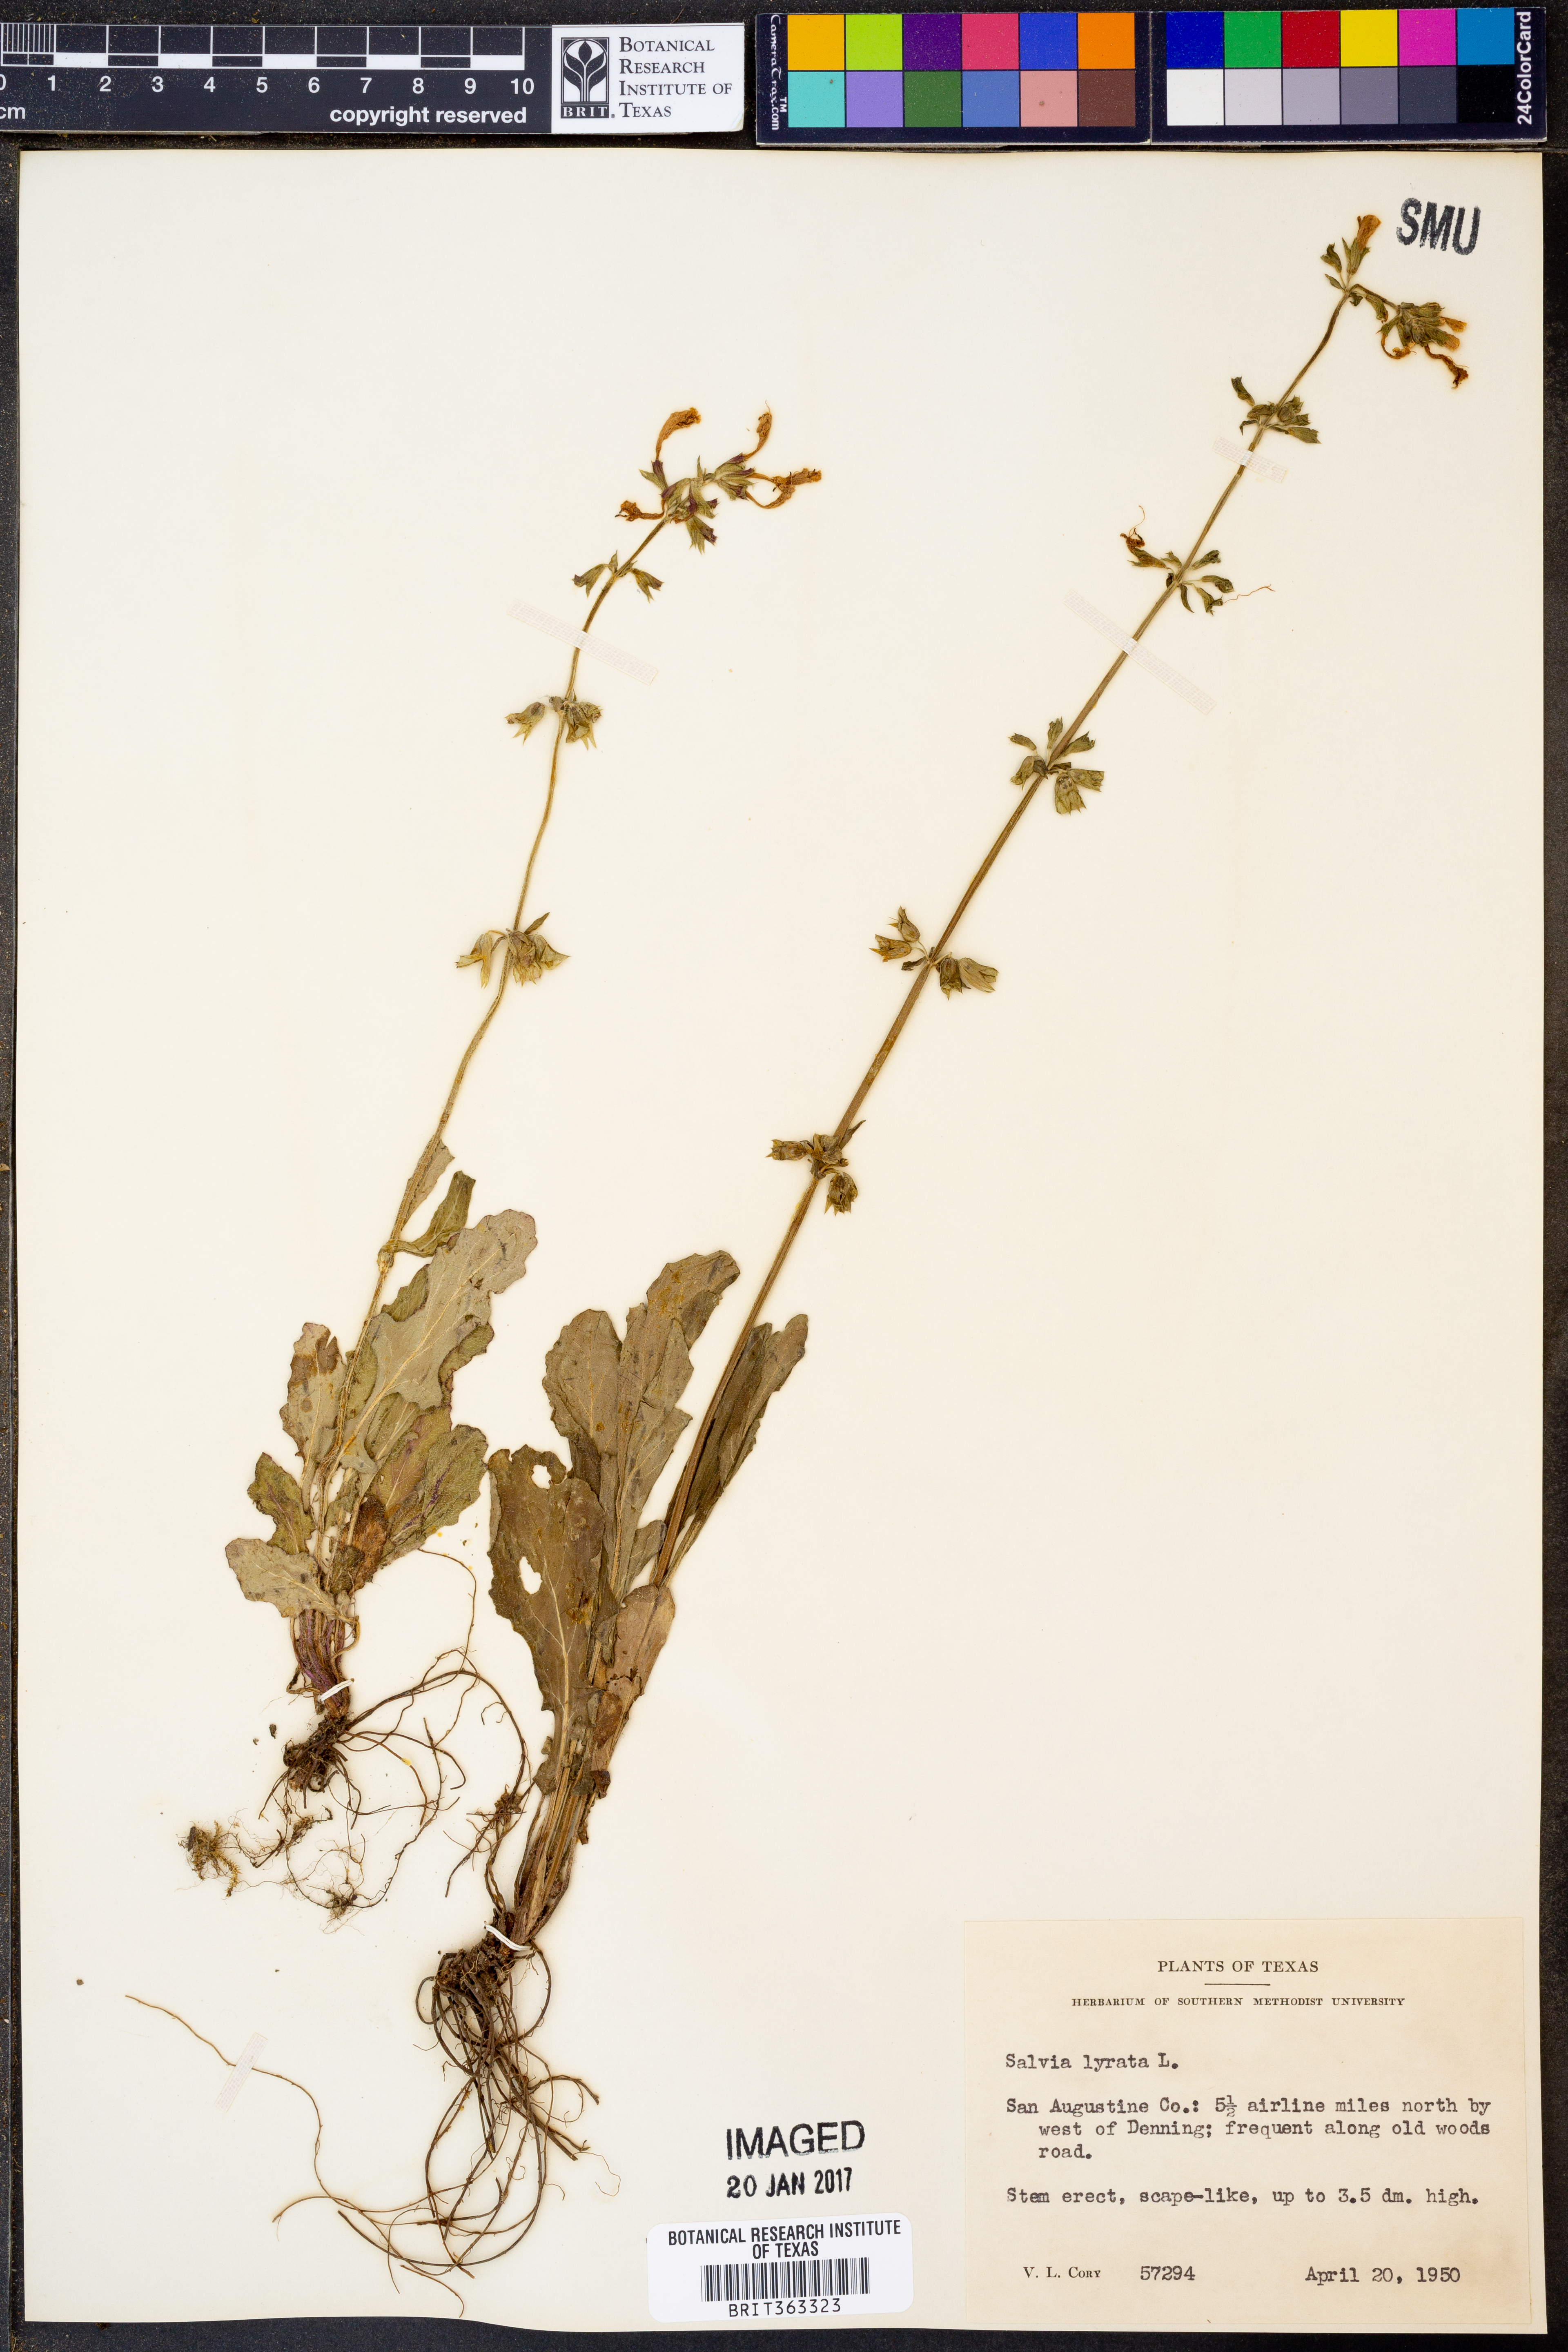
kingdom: Plantae
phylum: Tracheophyta
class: Magnoliopsida
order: Lamiales
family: Lamiaceae
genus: Salvia
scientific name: Salvia lyrata
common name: Cancerweed
